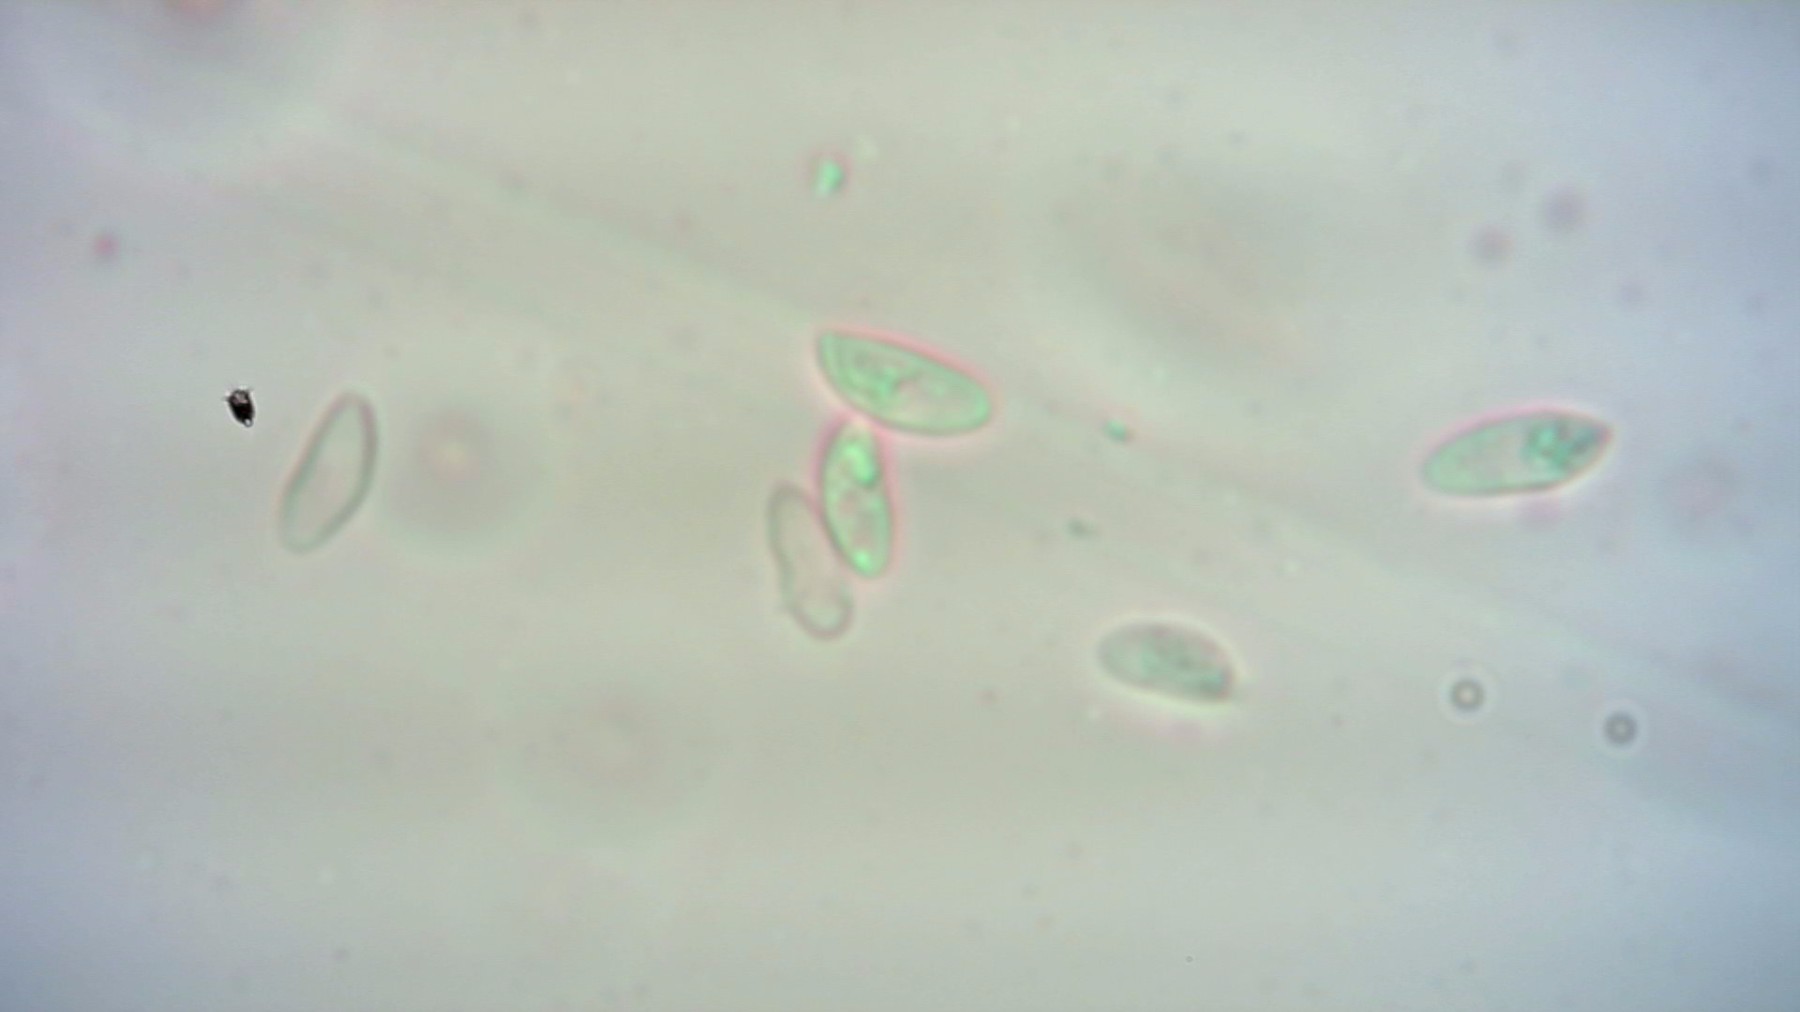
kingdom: Fungi
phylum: Basidiomycota
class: Agaricomycetes
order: Agaricales
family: Crepidotaceae
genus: Crepidotus
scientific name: Crepidotus epibryus
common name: førne-muslingesvamp
